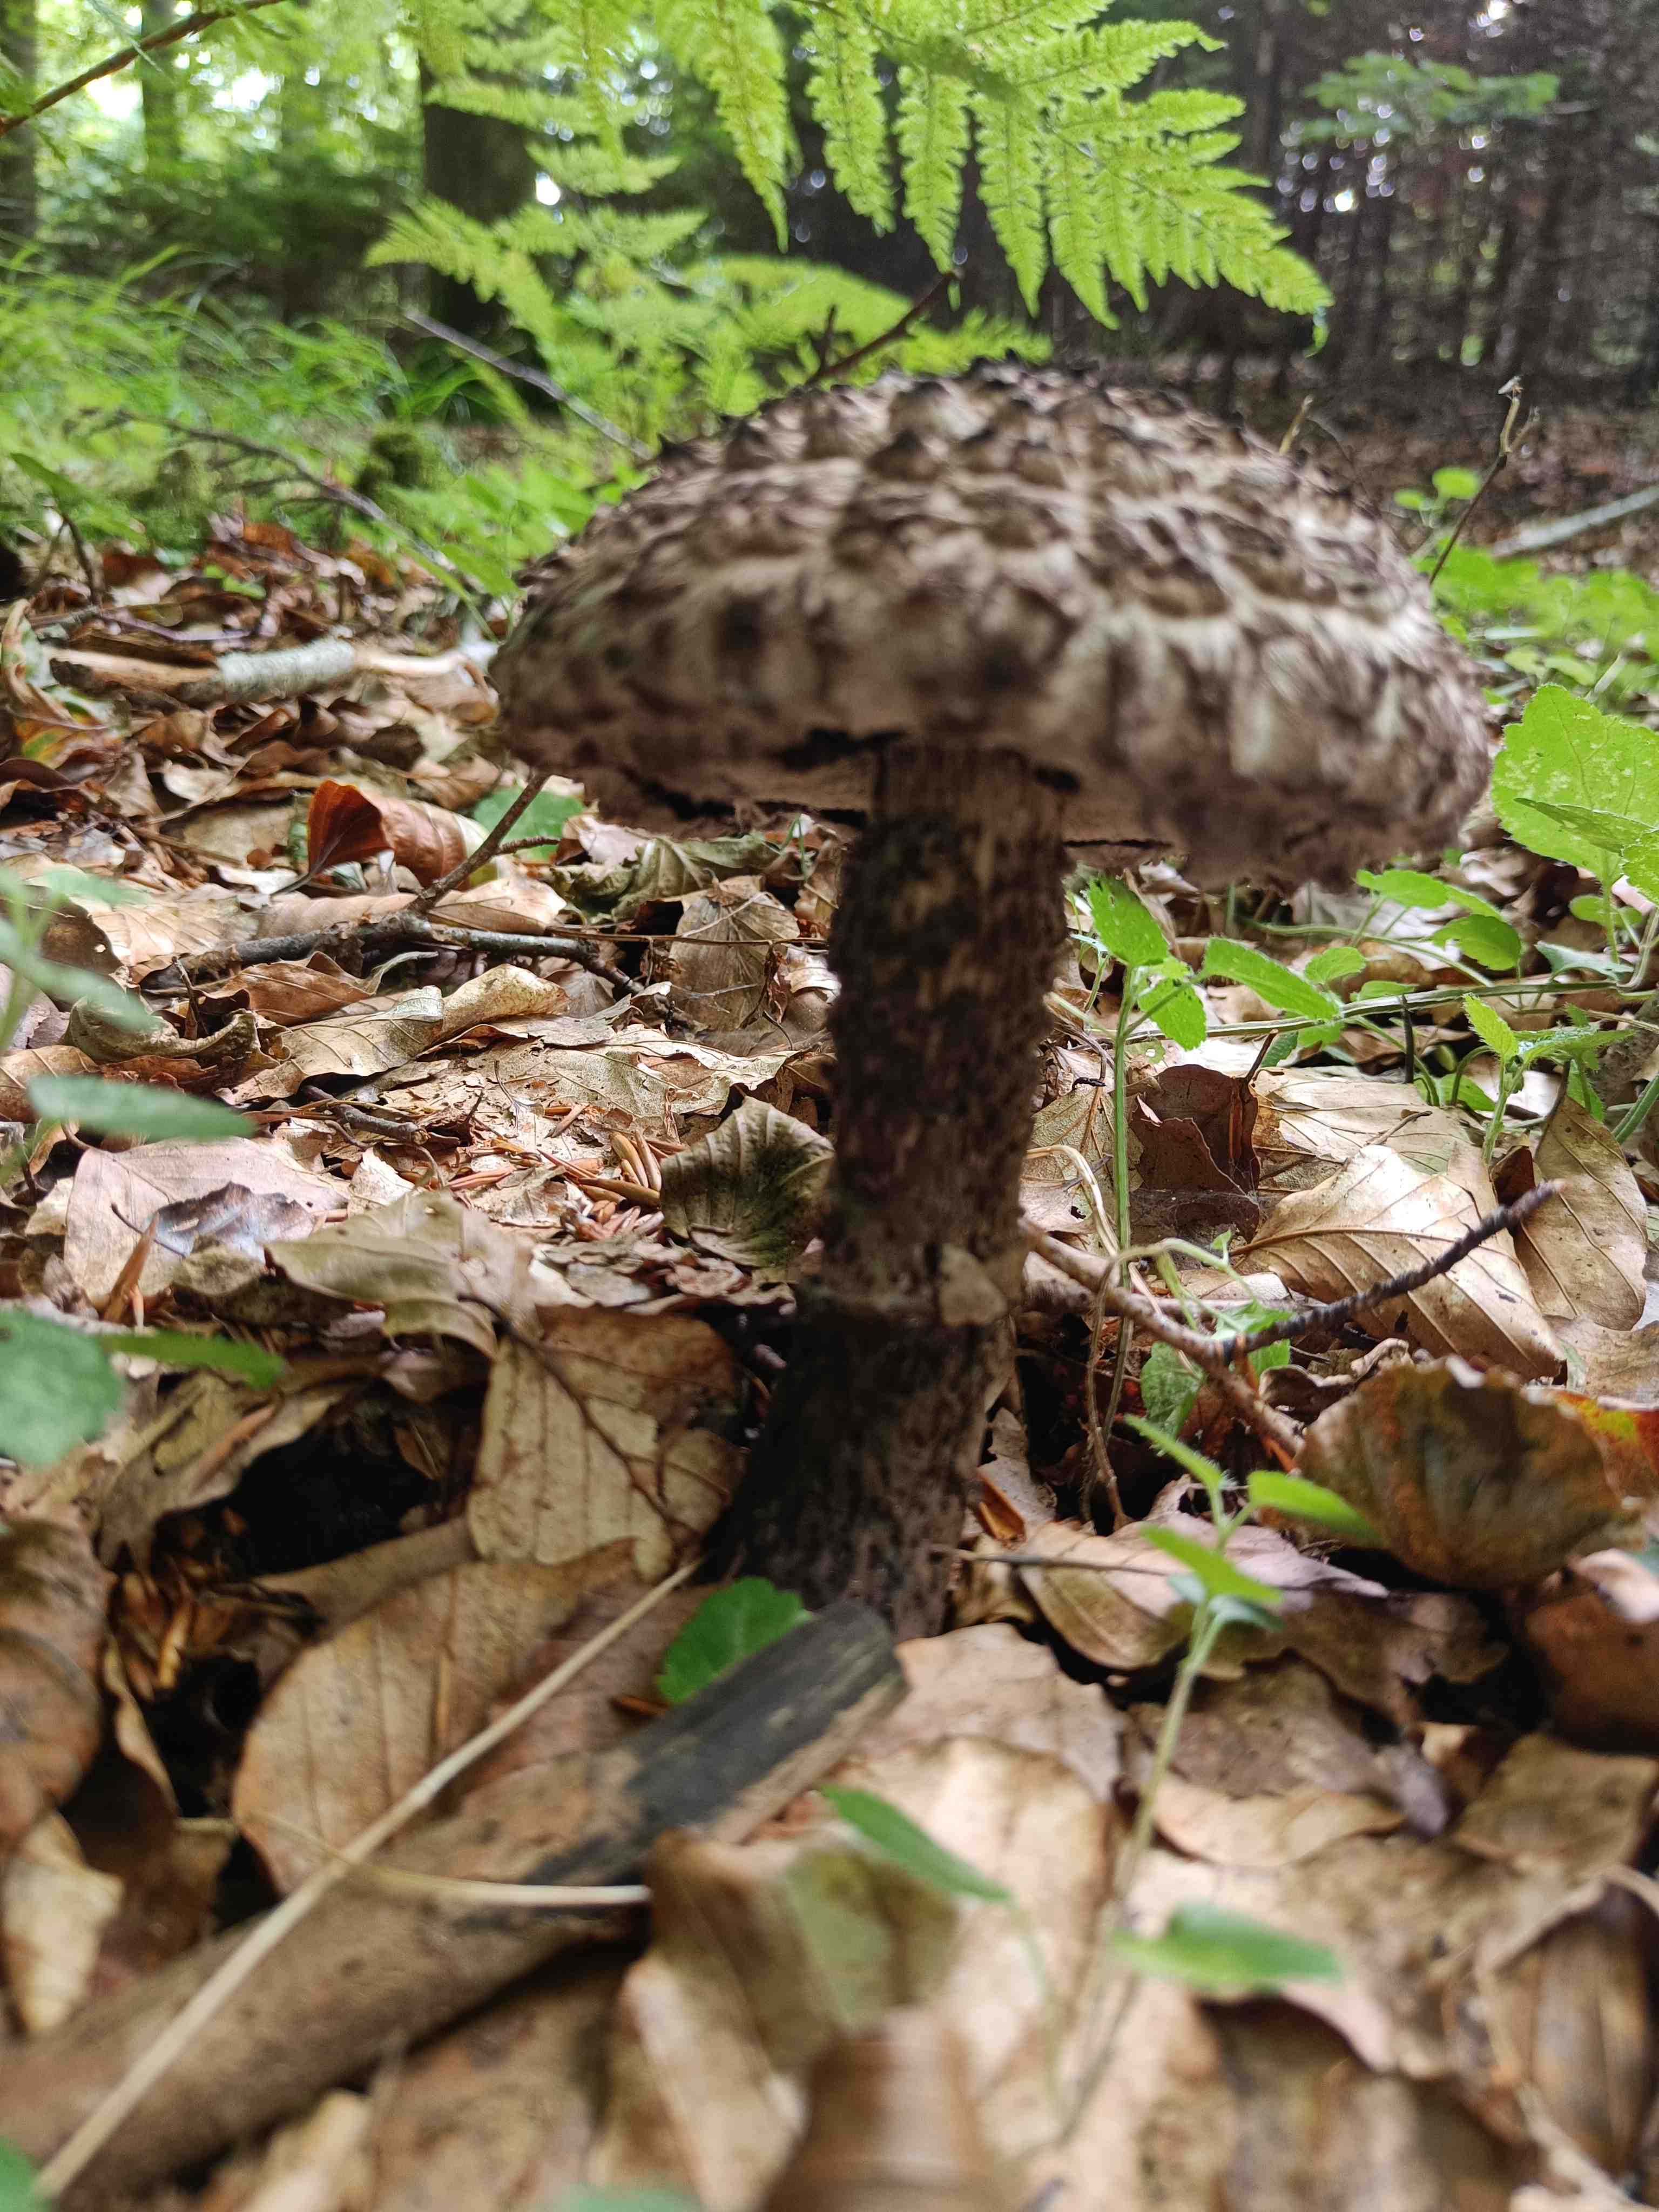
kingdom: Fungi
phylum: Basidiomycota
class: Agaricomycetes
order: Boletales
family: Boletaceae
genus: Strobilomyces
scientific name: Strobilomyces strobilaceus
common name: koglerørhat
